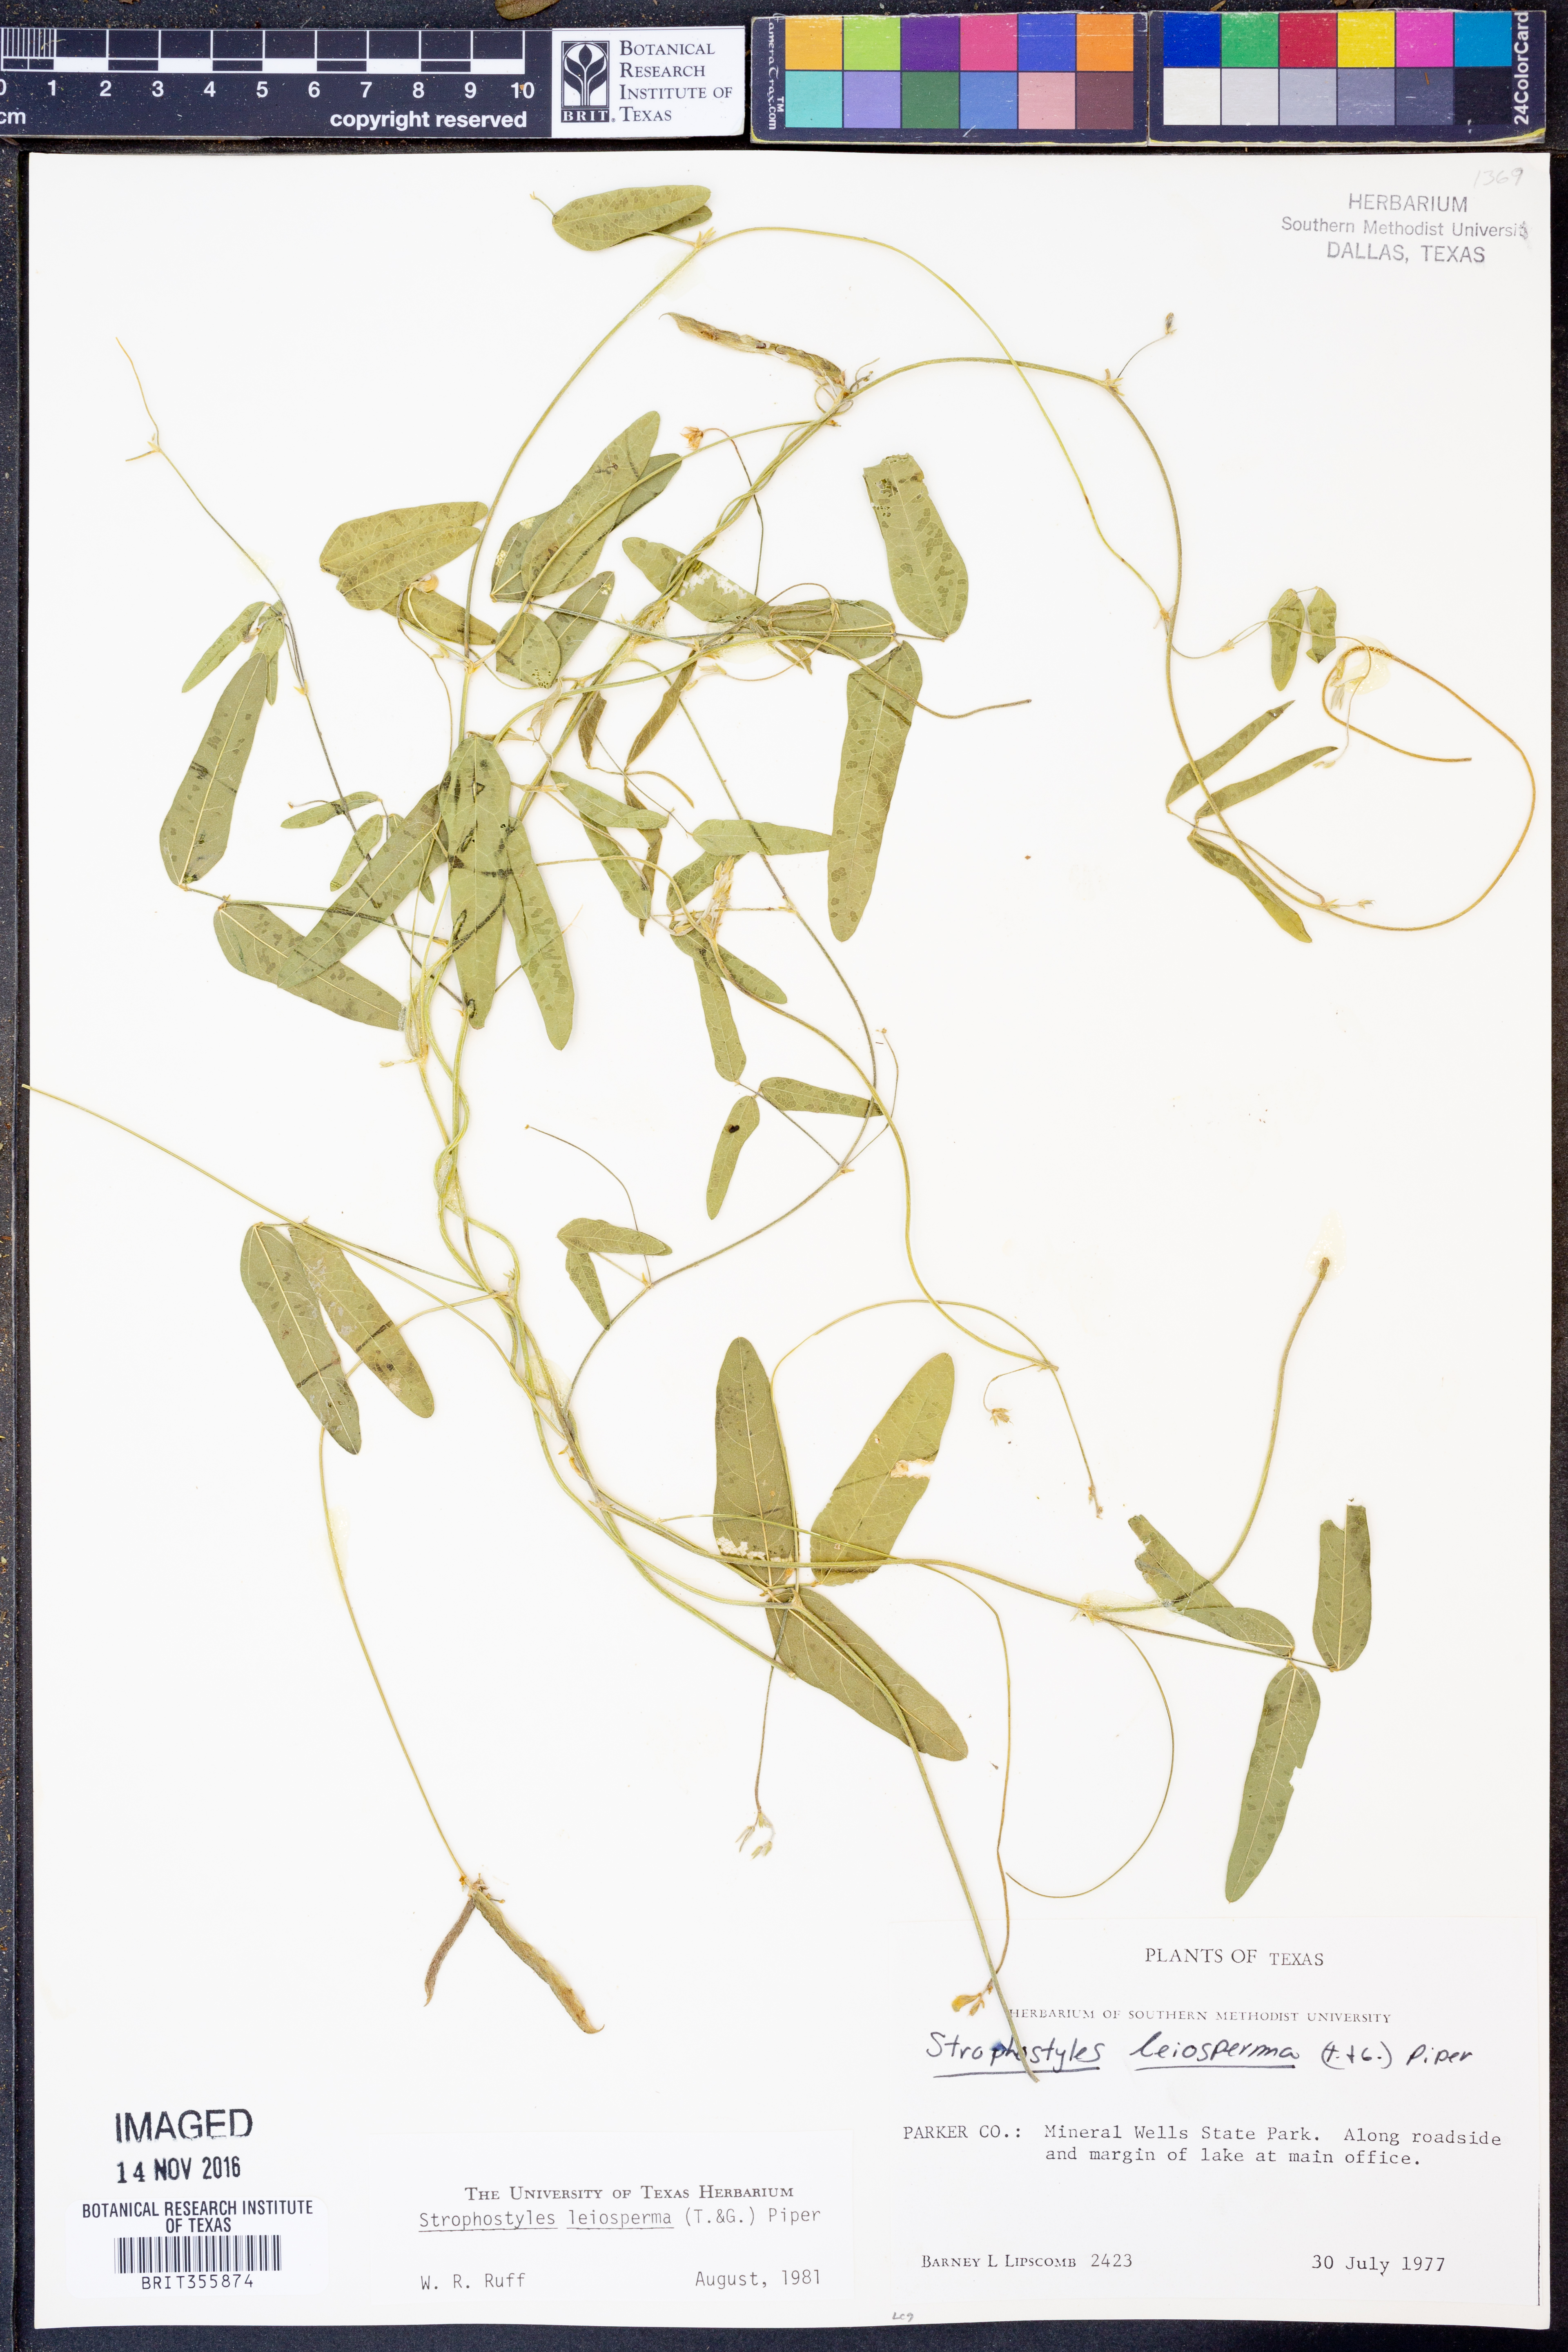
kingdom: Plantae
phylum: Tracheophyta
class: Magnoliopsida
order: Fabales
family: Fabaceae
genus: Strophostyles
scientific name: Strophostyles leiosperma
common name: Smooth-seed wild bean
